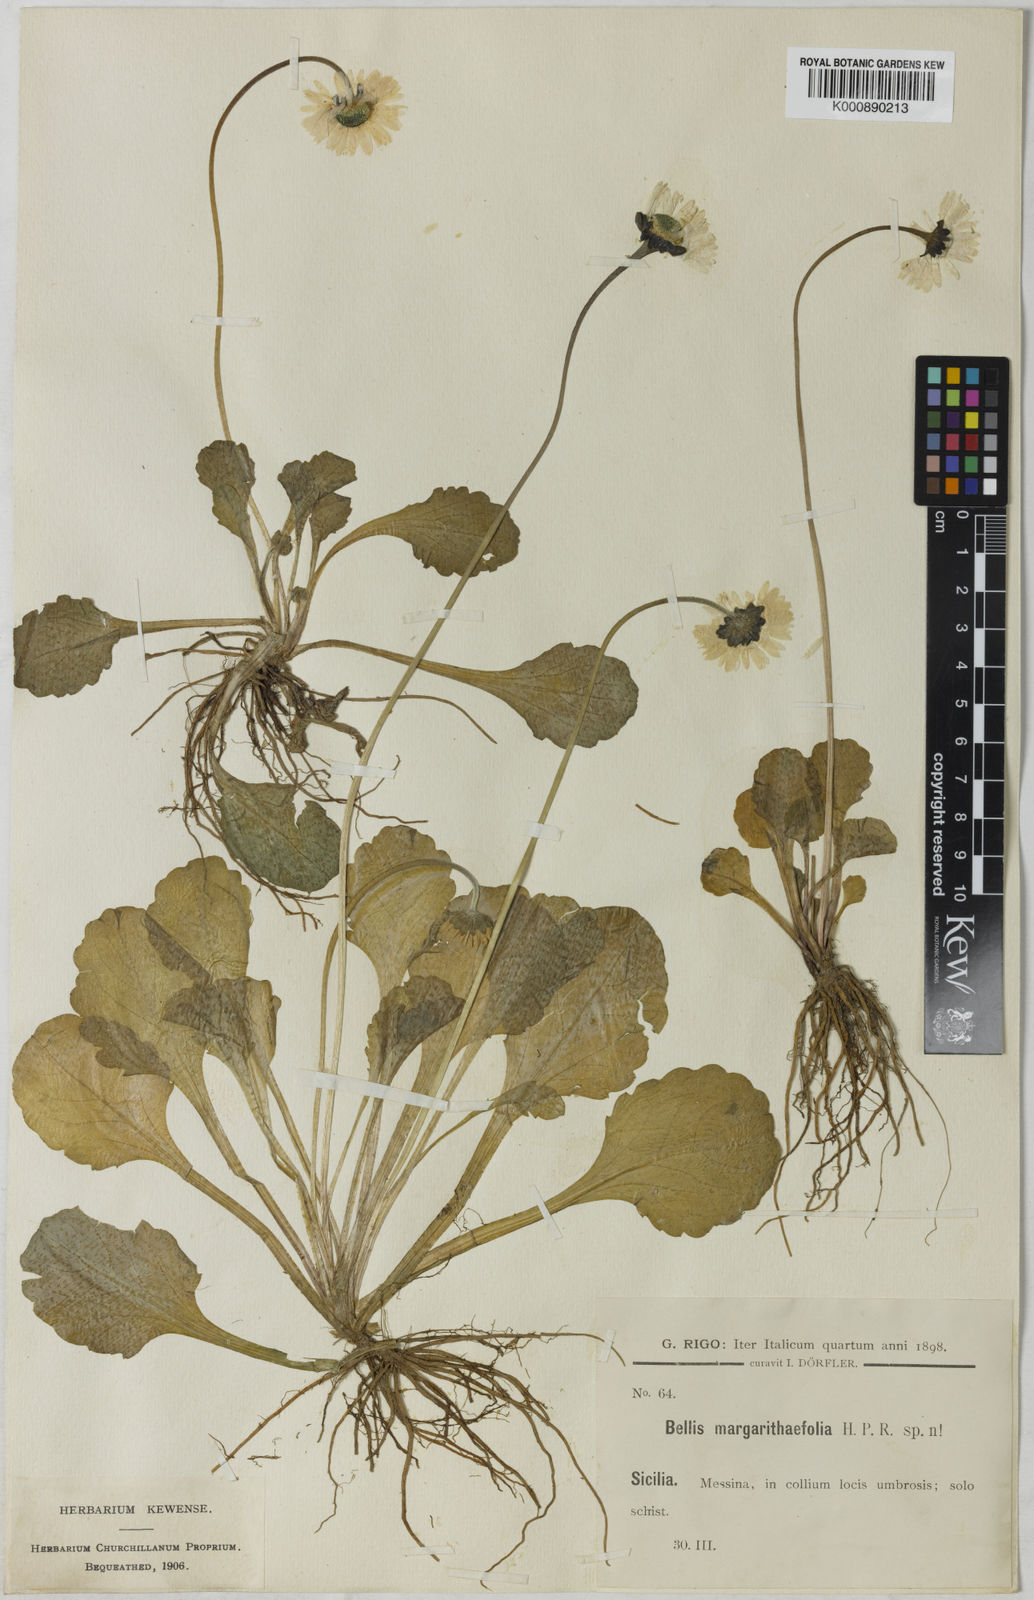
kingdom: Plantae
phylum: Tracheophyta
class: Magnoliopsida
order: Asterales
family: Asteraceae
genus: Bellis
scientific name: Bellis perennis
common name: Lawndaisy
